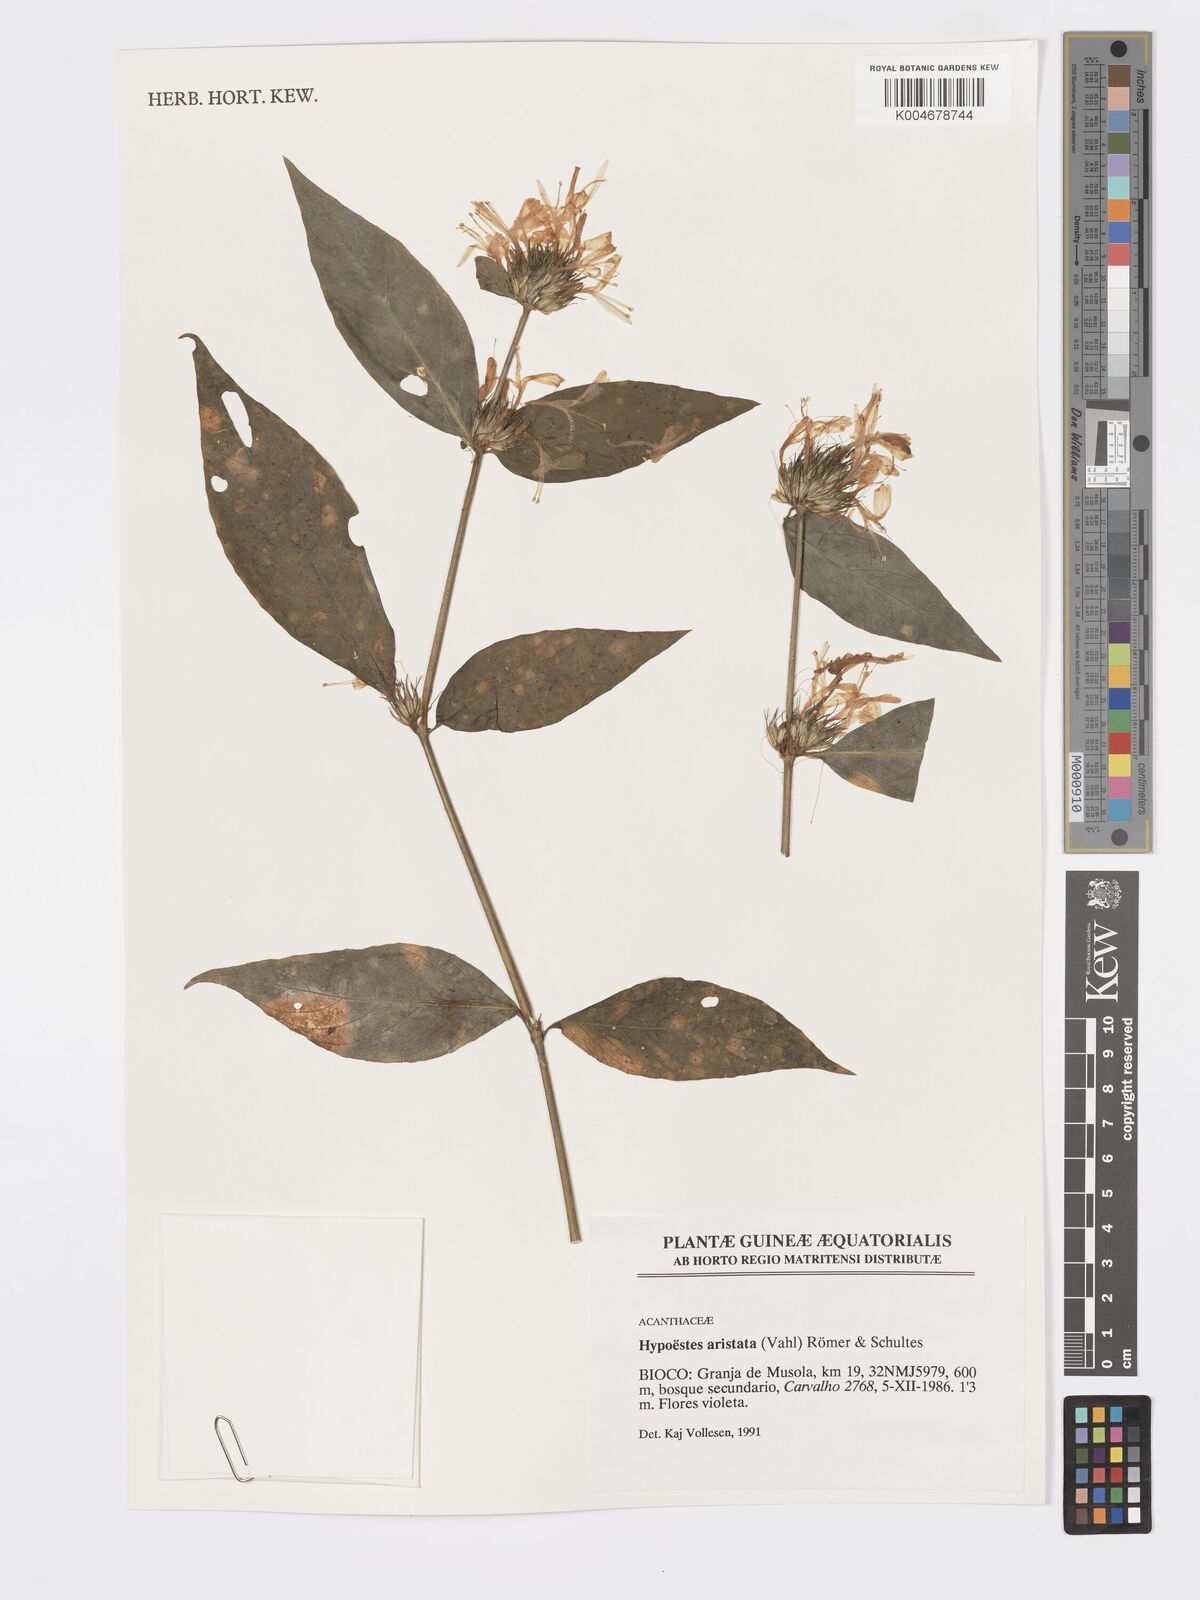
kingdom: Plantae
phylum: Tracheophyta
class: Magnoliopsida
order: Lamiales
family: Acanthaceae
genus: Hypoestes
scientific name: Hypoestes aristata
